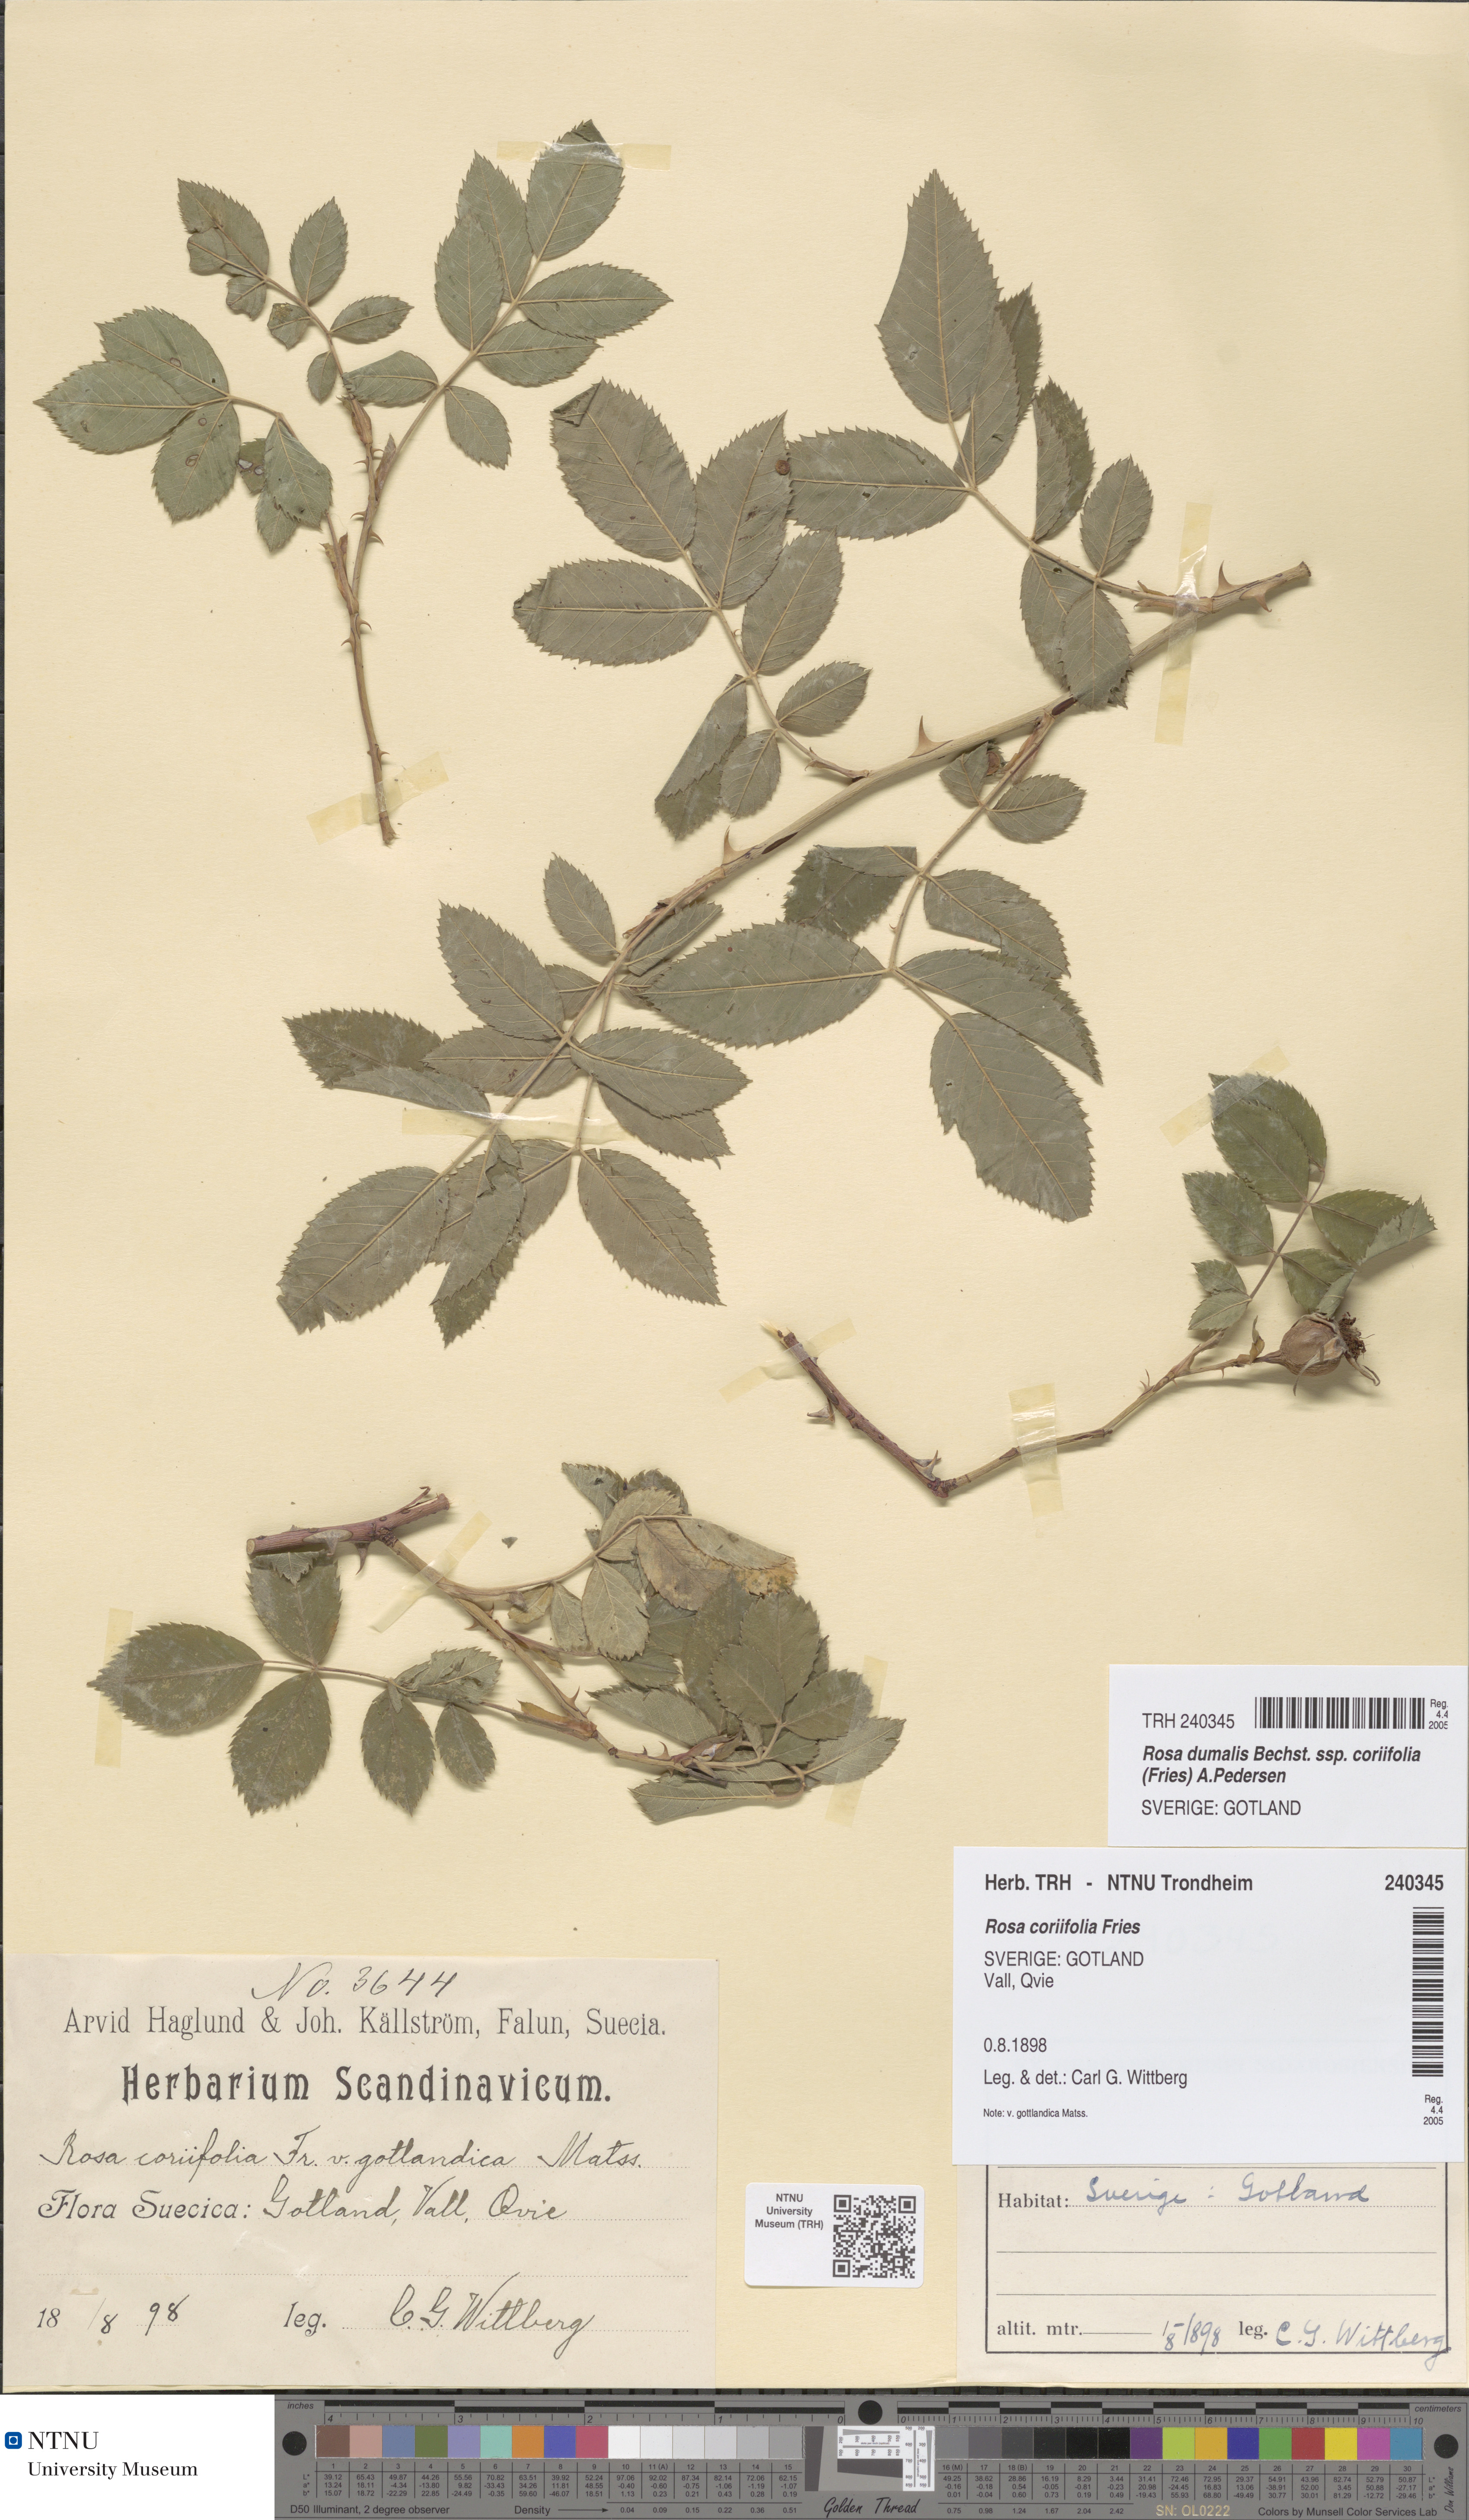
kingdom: Plantae
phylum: Tracheophyta
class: Magnoliopsida
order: Rosales
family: Rosaceae
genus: Rosa
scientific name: Rosa caesia
